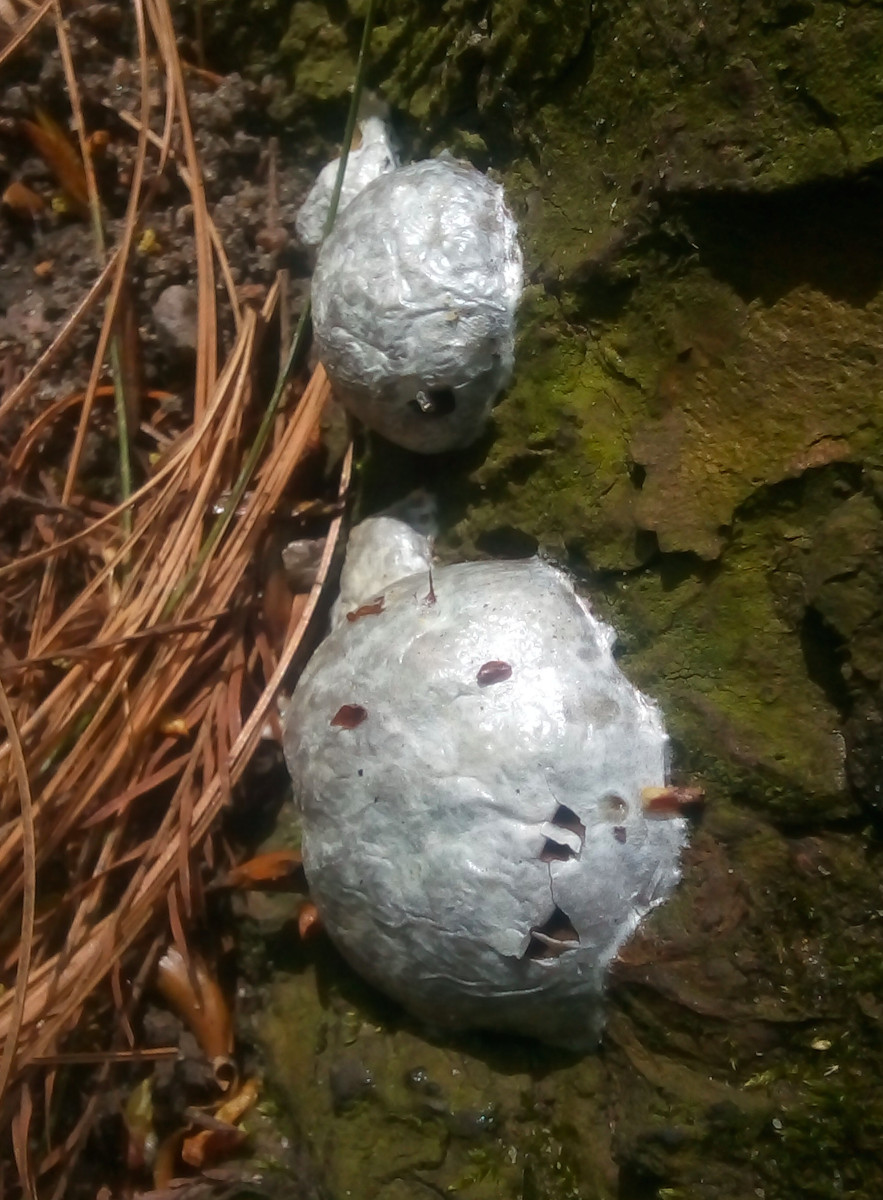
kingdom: Protozoa
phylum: Mycetozoa
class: Myxomycetes
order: Cribrariales
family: Tubiferaceae
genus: Reticularia
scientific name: Reticularia lycoperdon
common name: skinnende støvpude
